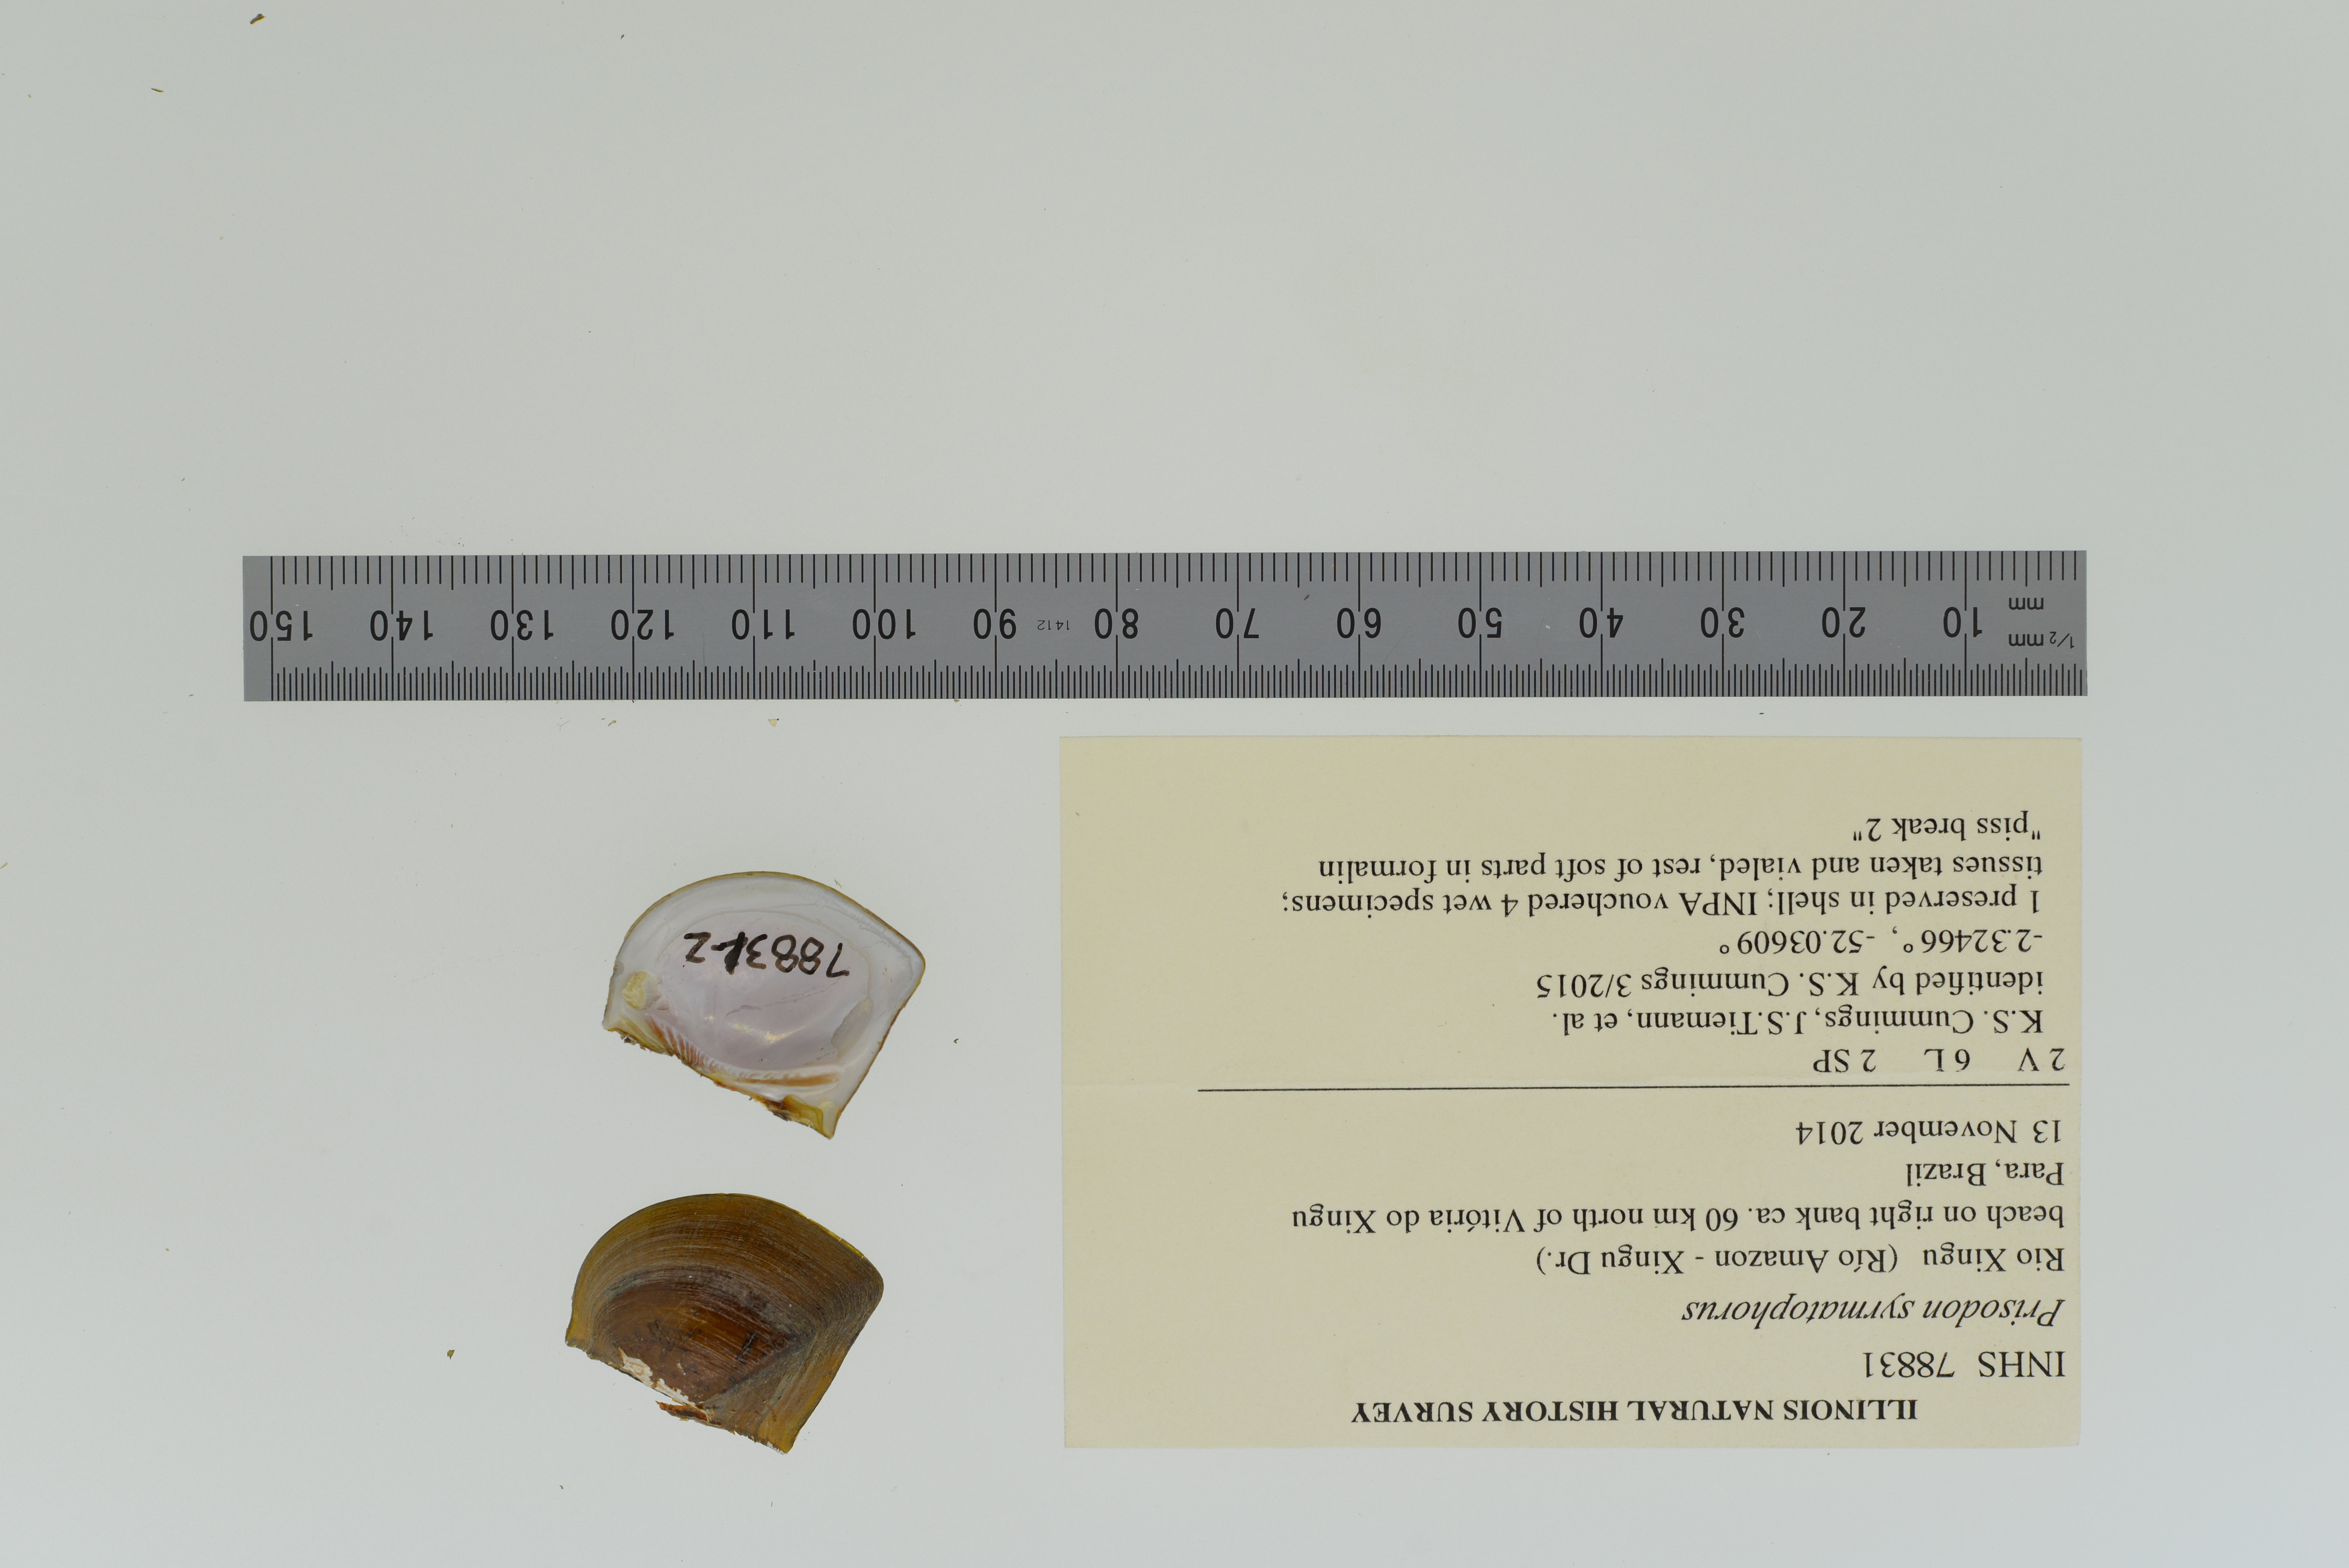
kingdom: Animalia
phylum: Mollusca
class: Bivalvia
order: Unionida
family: Hyriidae
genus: Prisodon
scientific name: Prisodon syrmatophorus
